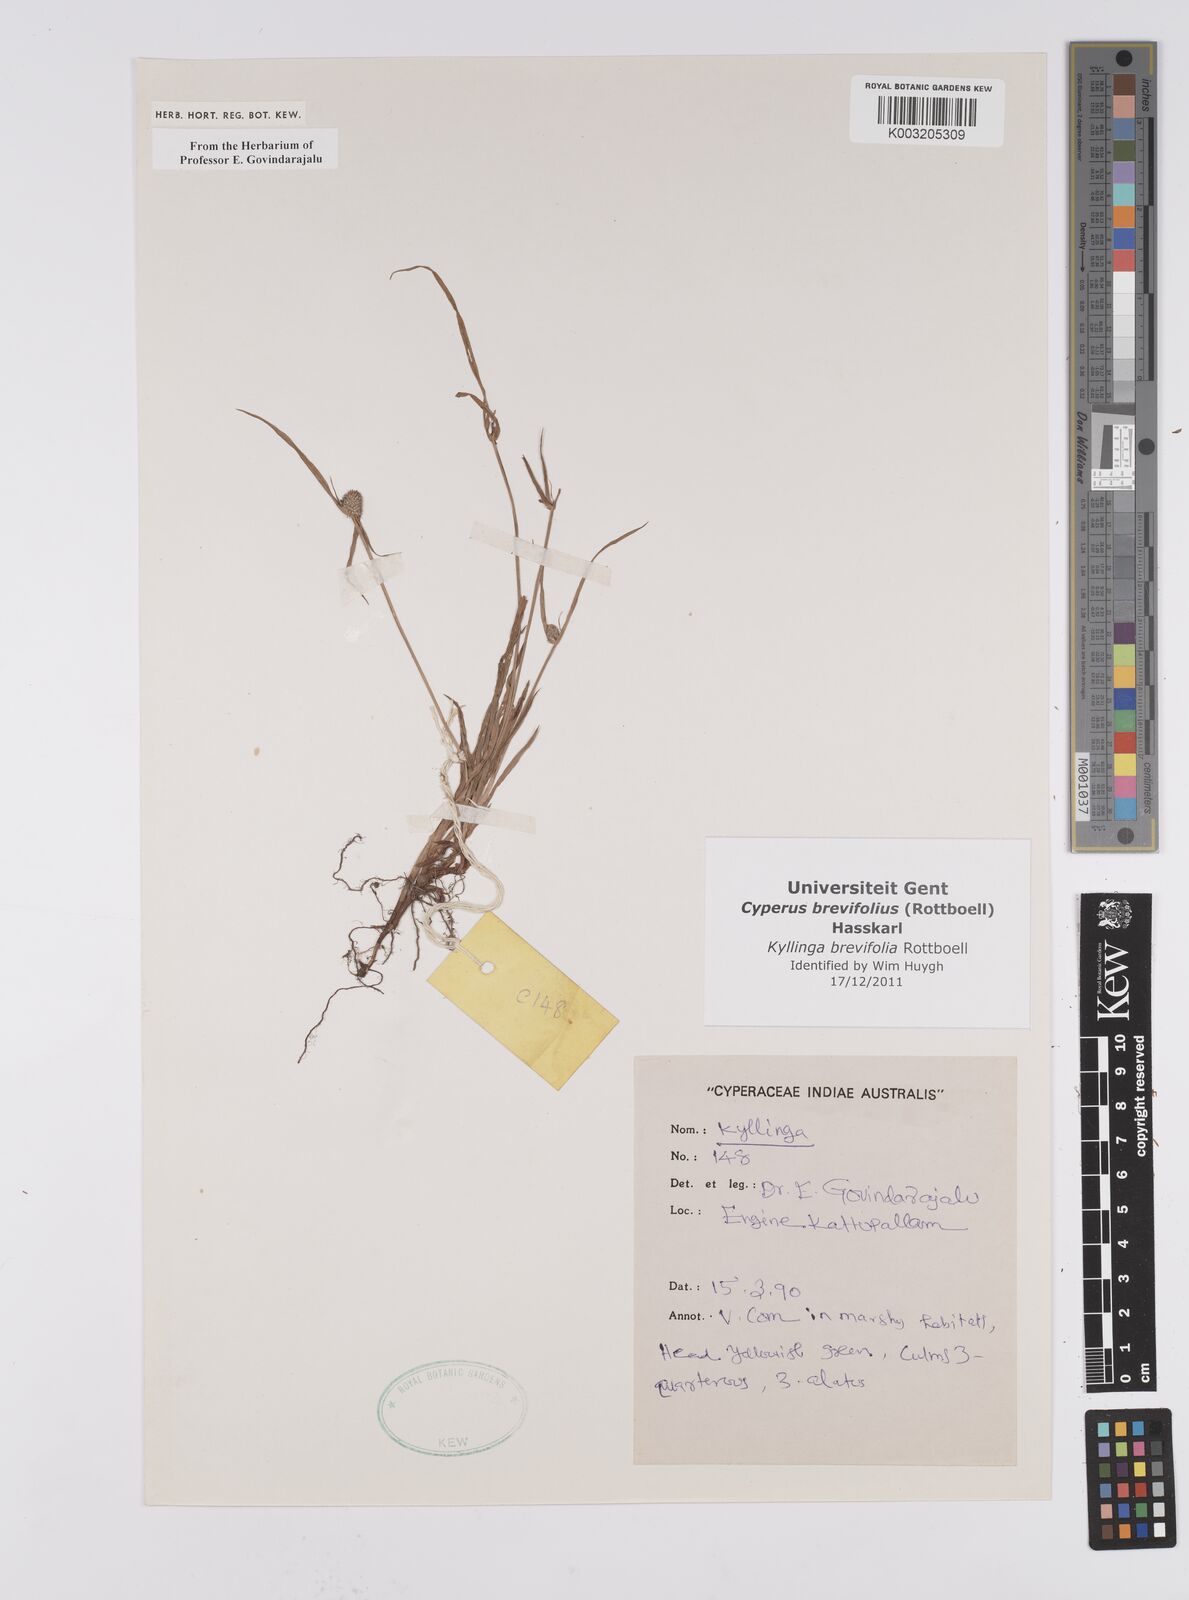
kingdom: Plantae
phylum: Tracheophyta
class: Liliopsida
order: Poales
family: Cyperaceae
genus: Cyperus
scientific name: Cyperus brevifolius
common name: Globe kyllinga
